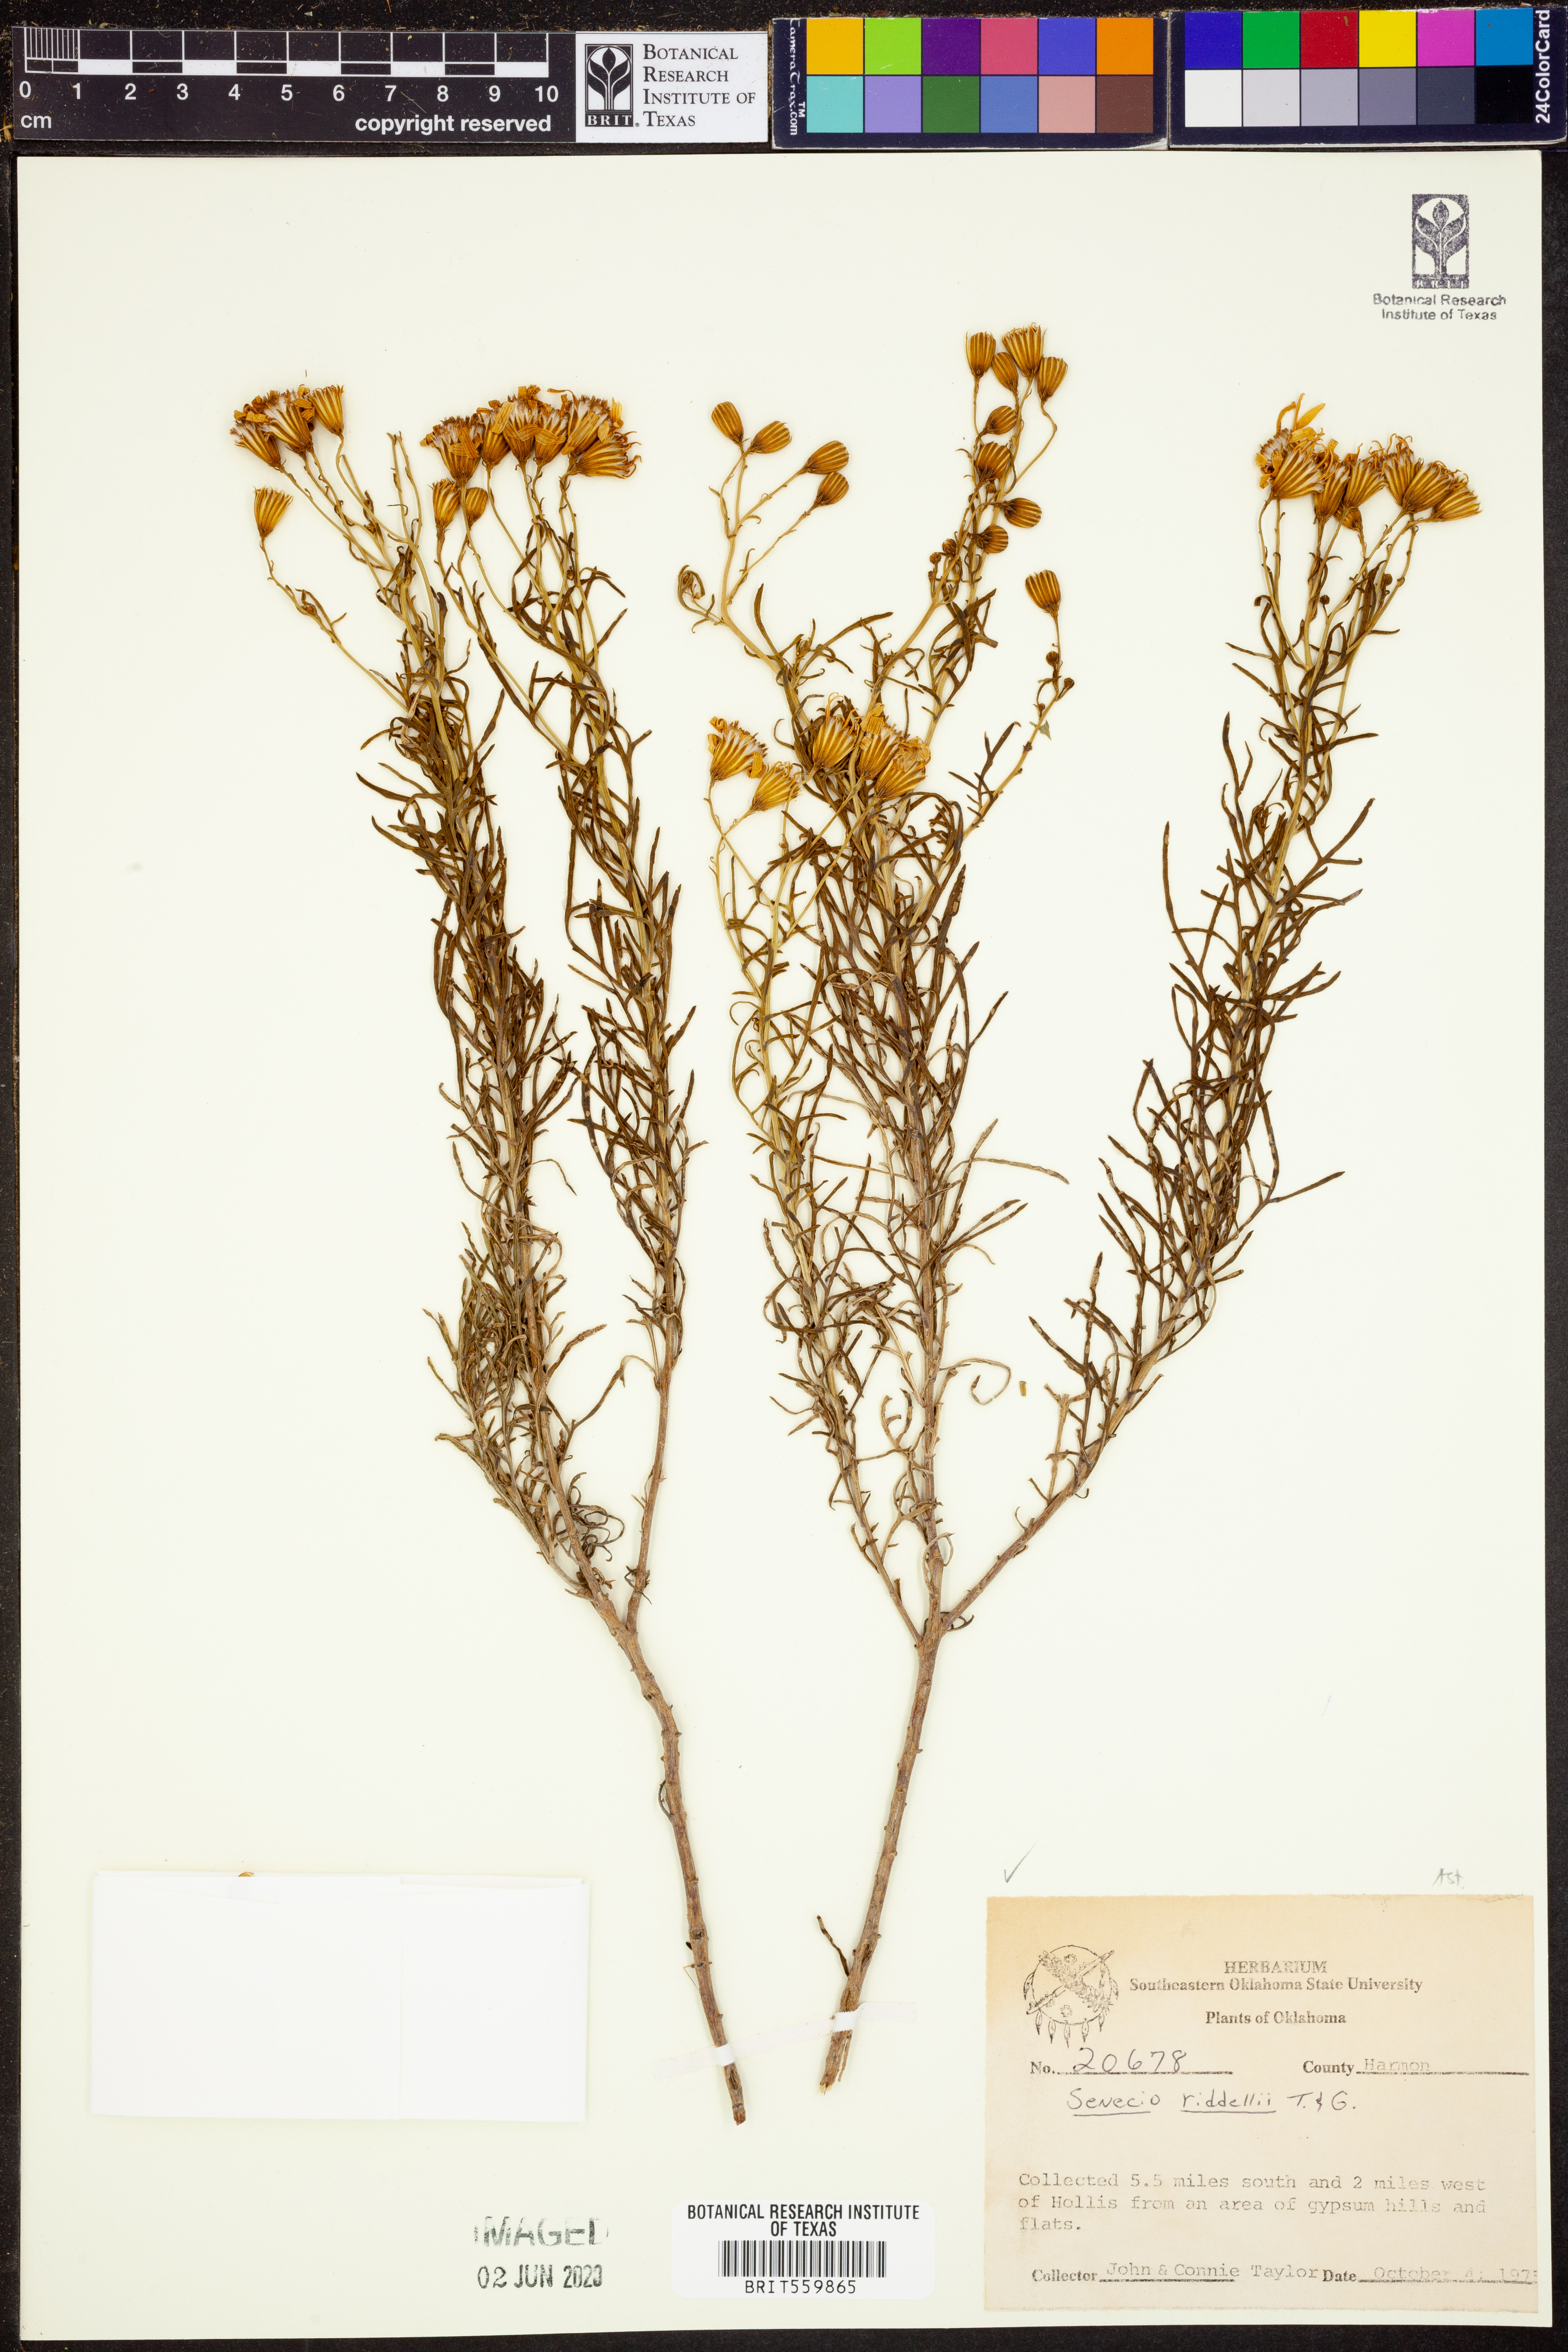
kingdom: Plantae
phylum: Tracheophyta
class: Magnoliopsida
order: Asterales
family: Asteraceae
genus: Senecio
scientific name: Senecio riddellii
